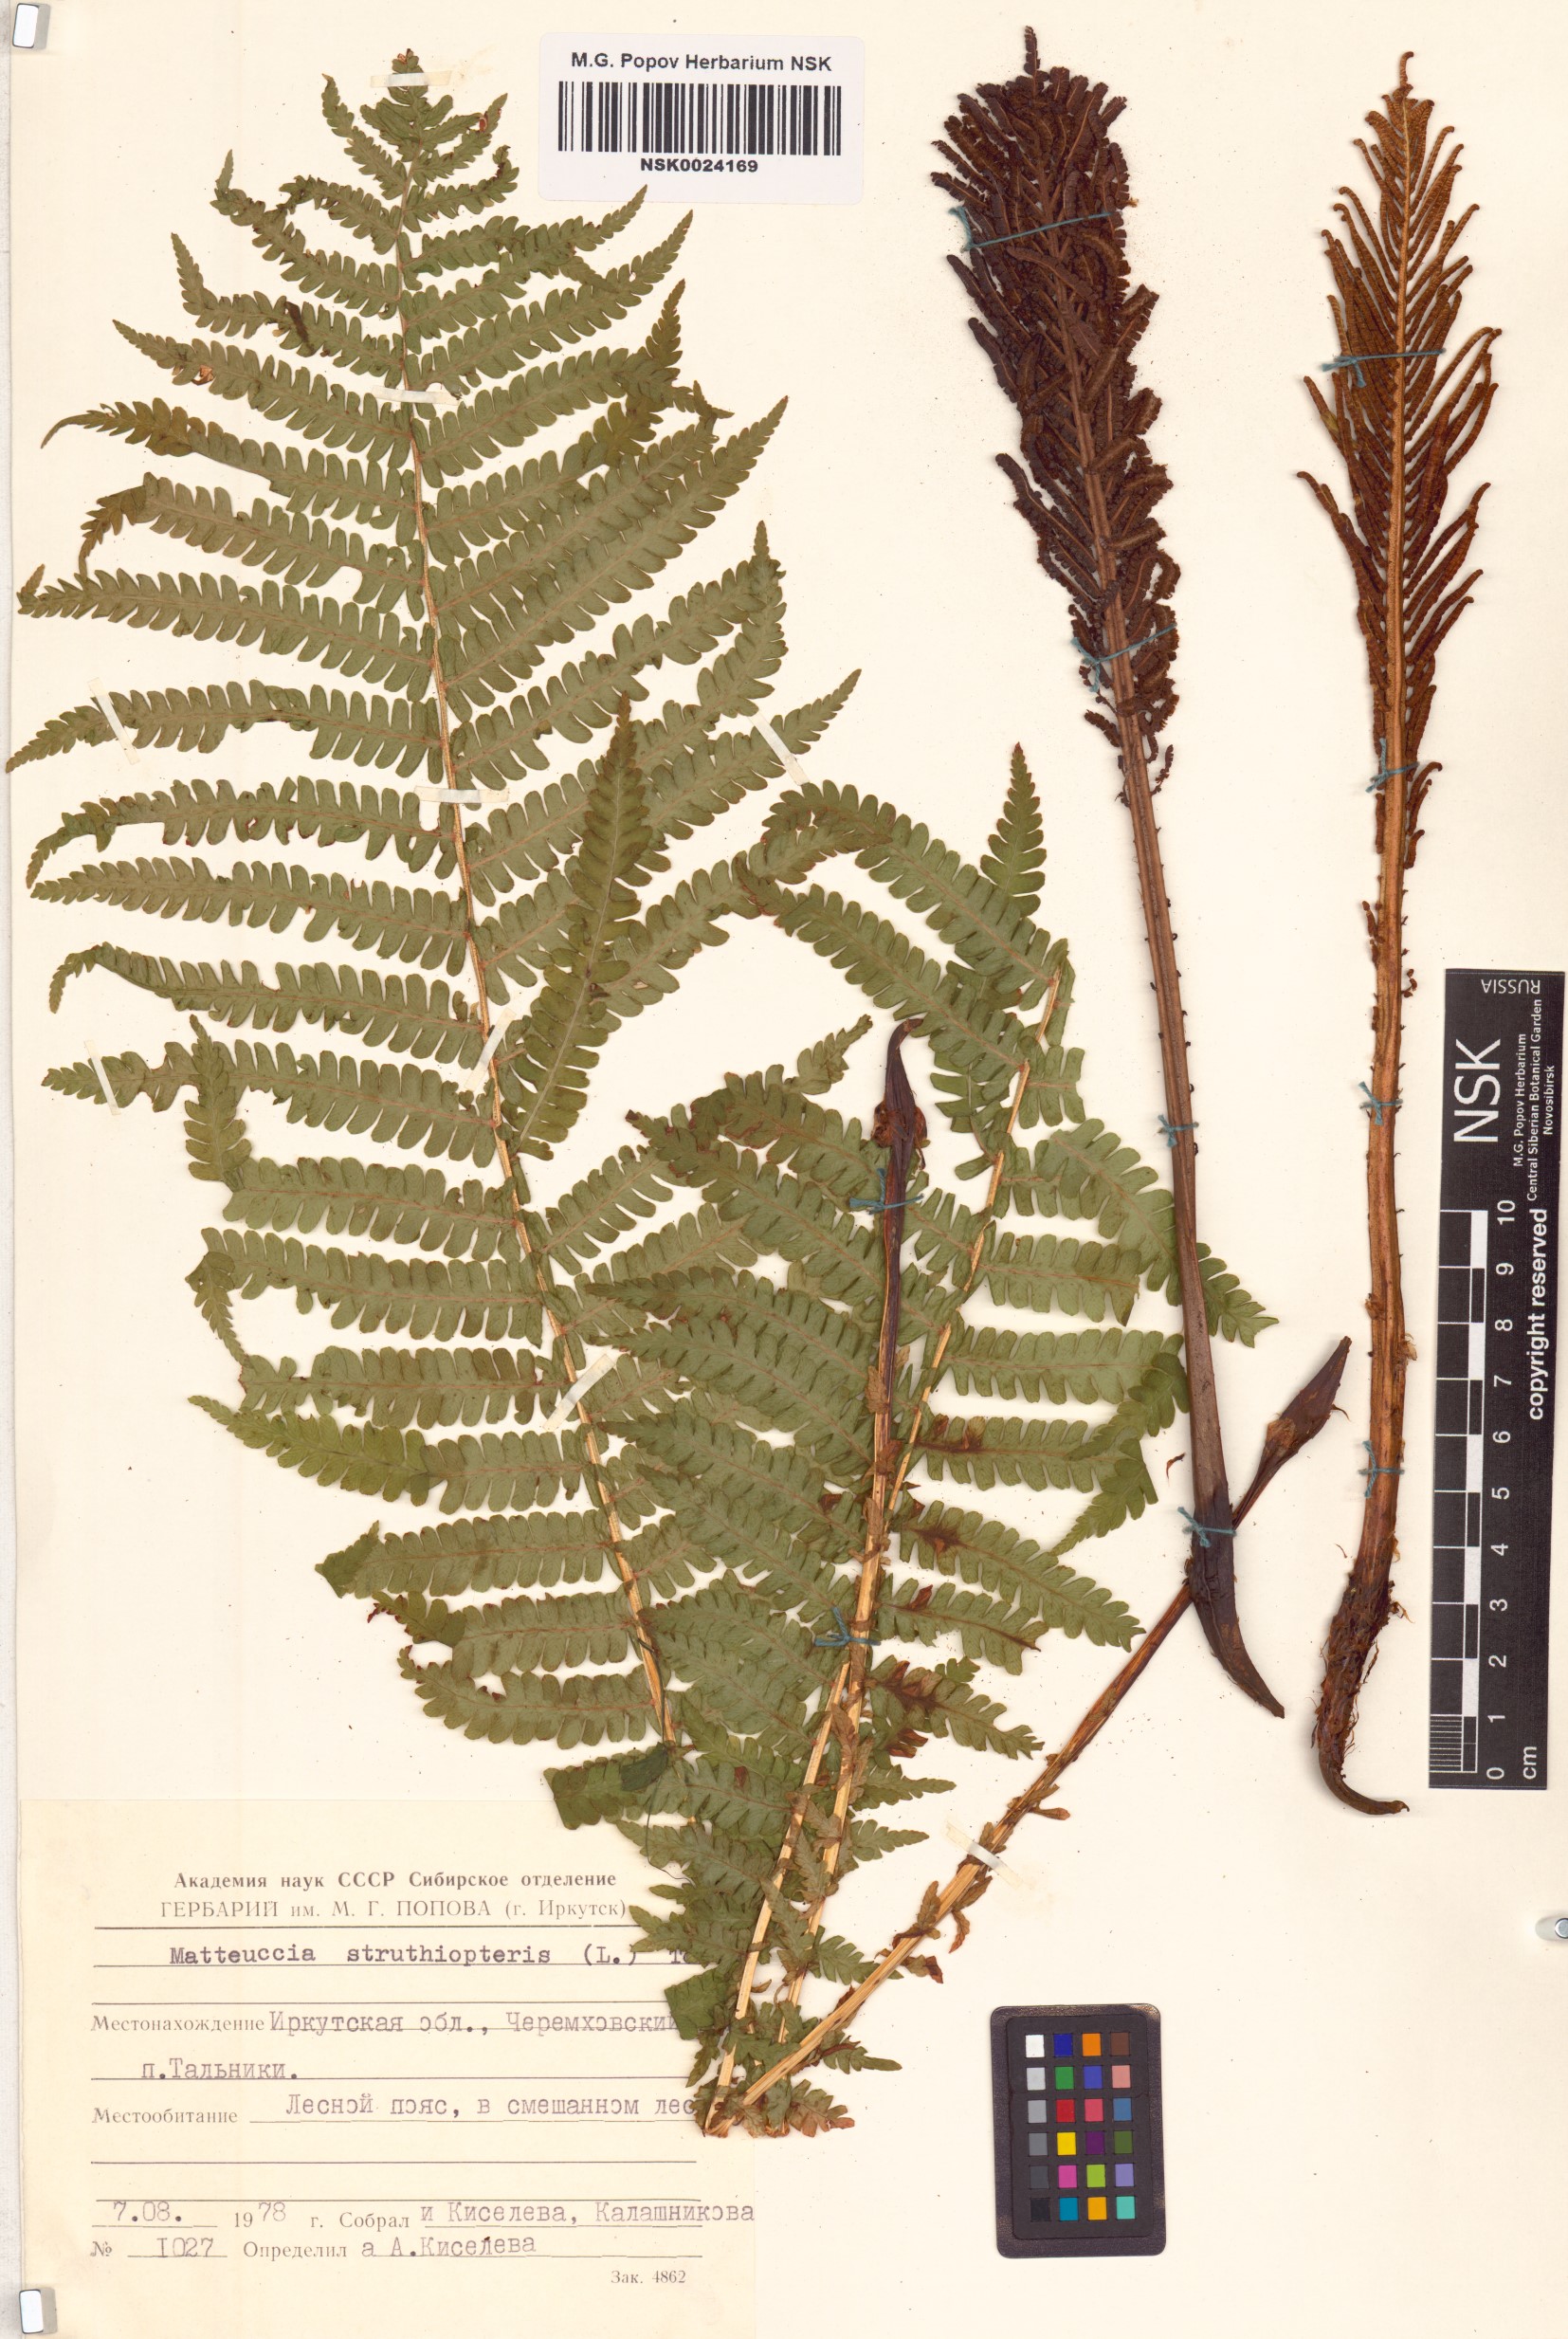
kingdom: Plantae
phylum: Tracheophyta
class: Polypodiopsida
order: Polypodiales
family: Onocleaceae
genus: Matteuccia
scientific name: Matteuccia struthiopteris
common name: Ostrich fern
